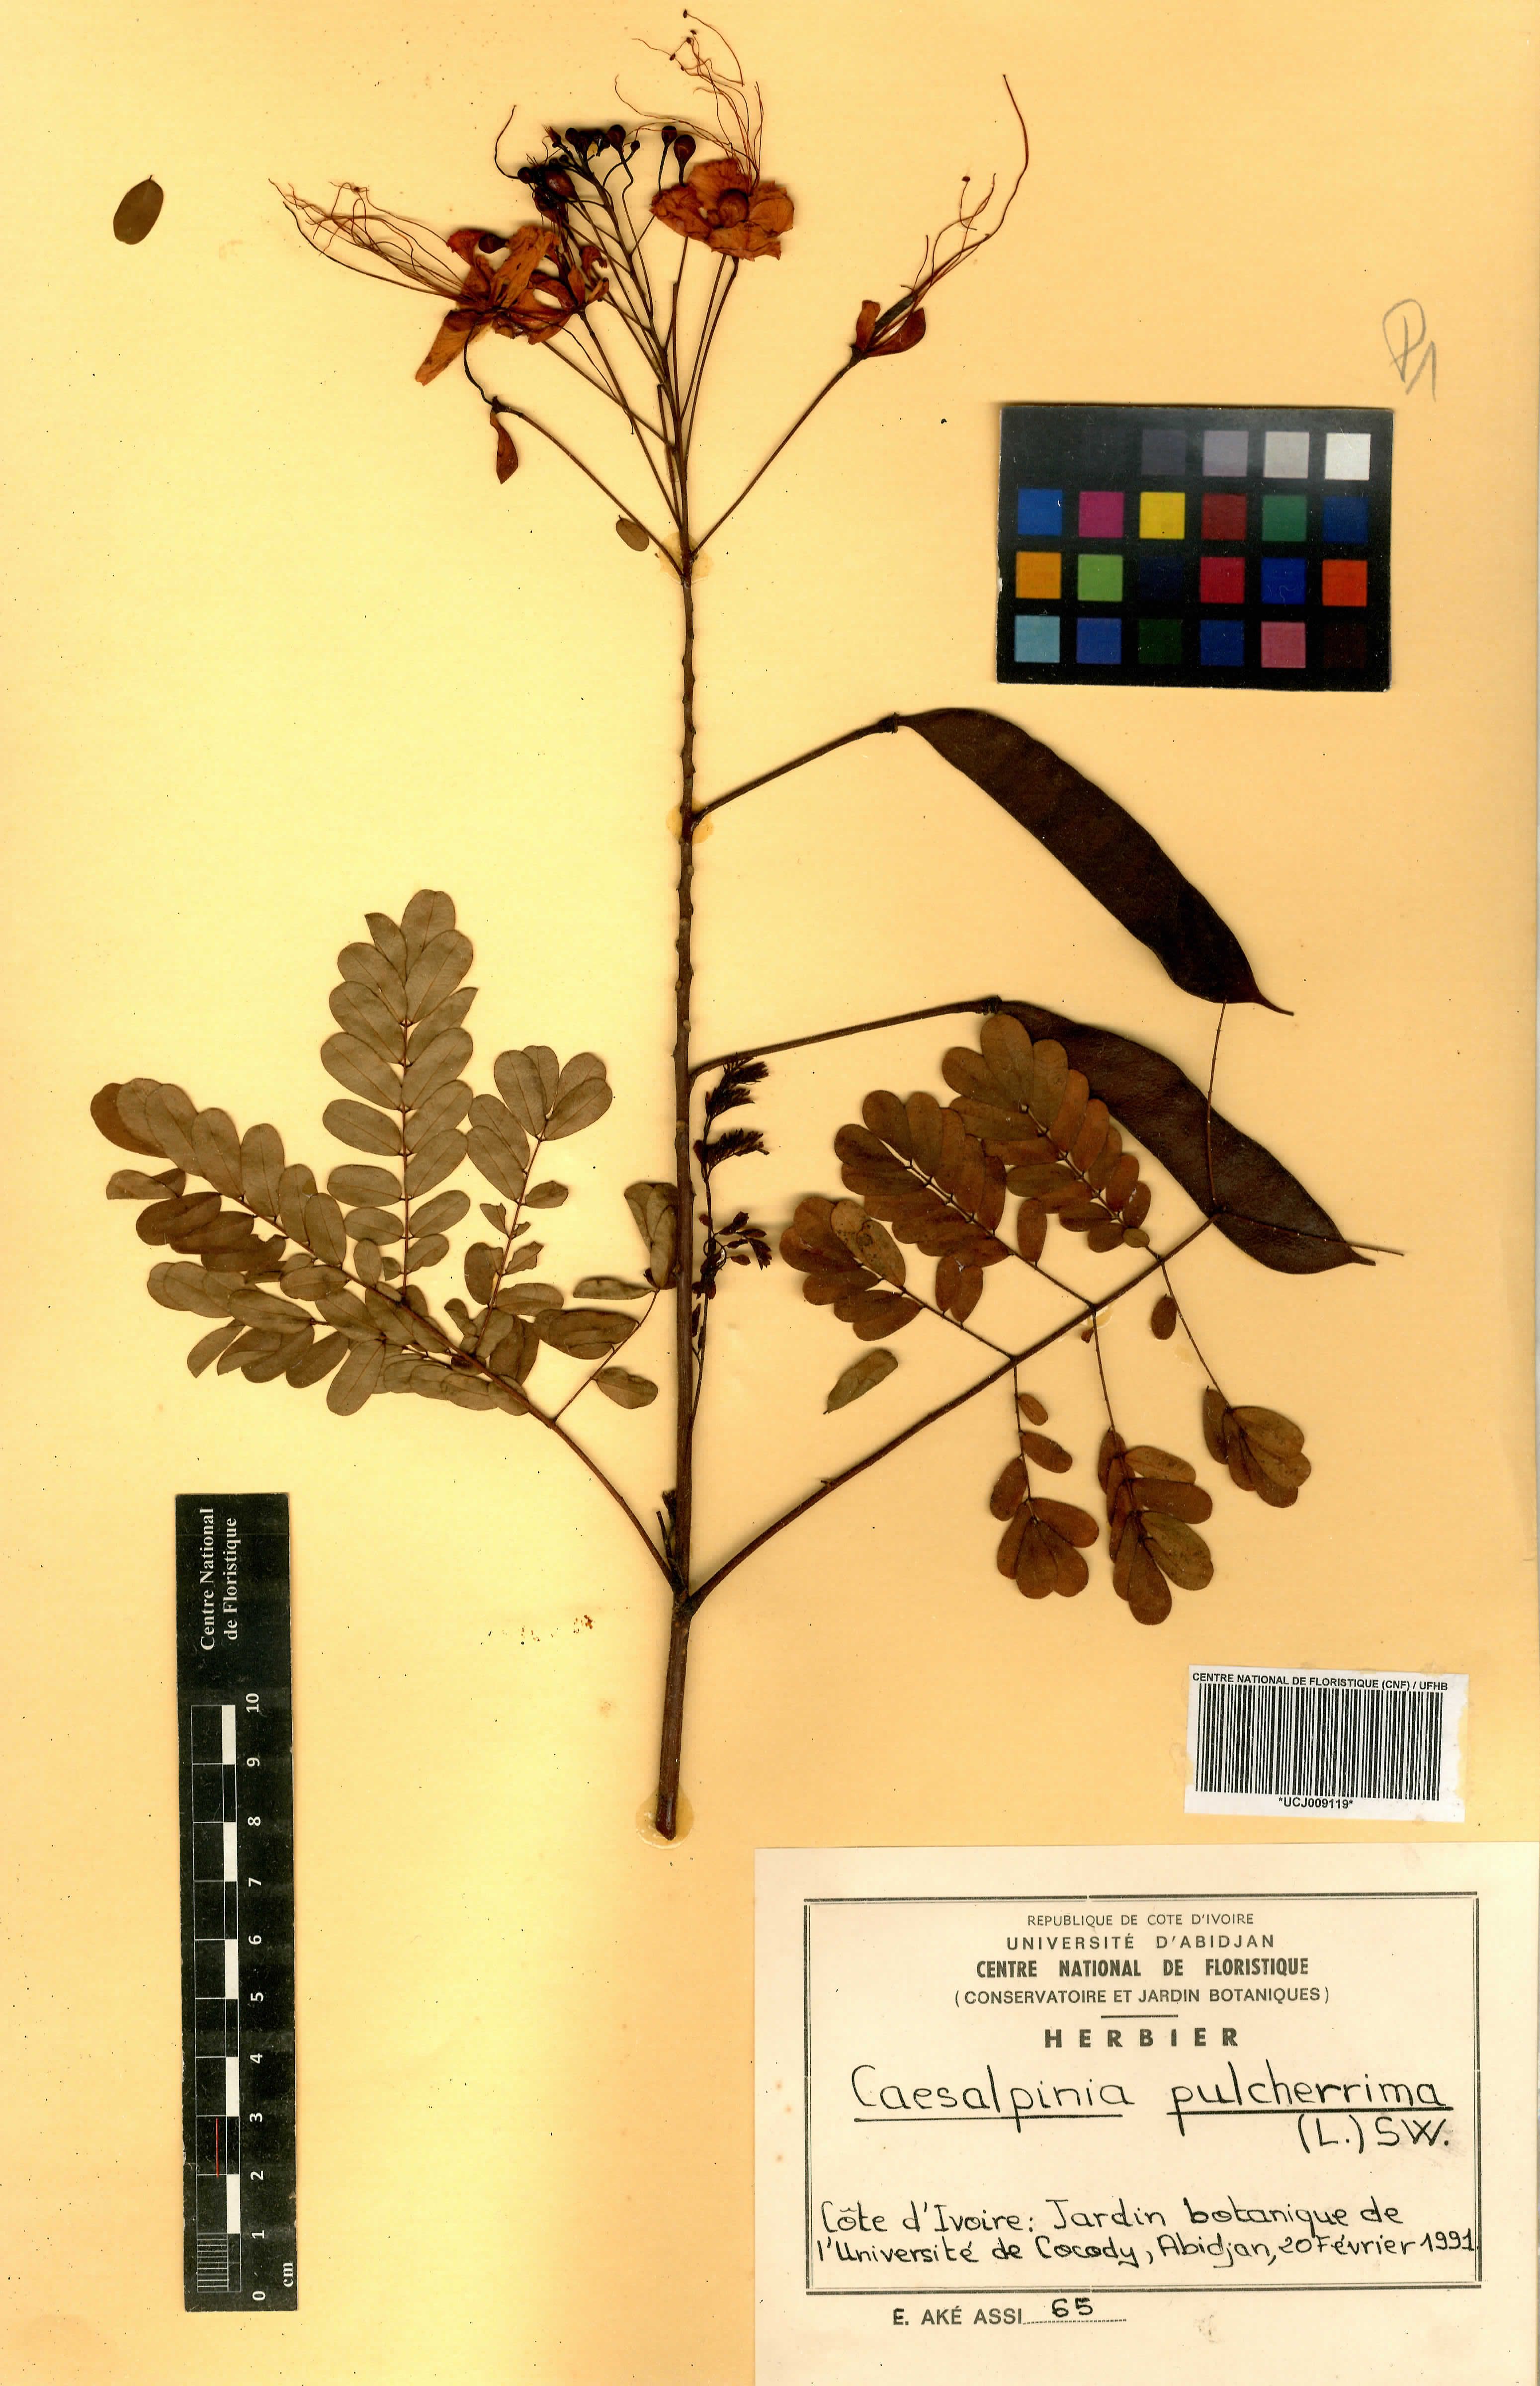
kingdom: Plantae
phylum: Tracheophyta
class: Magnoliopsida
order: Fabales
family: Fabaceae
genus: Caesalpinia
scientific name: Caesalpinia pulcherrima
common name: Pride-of-barbados
